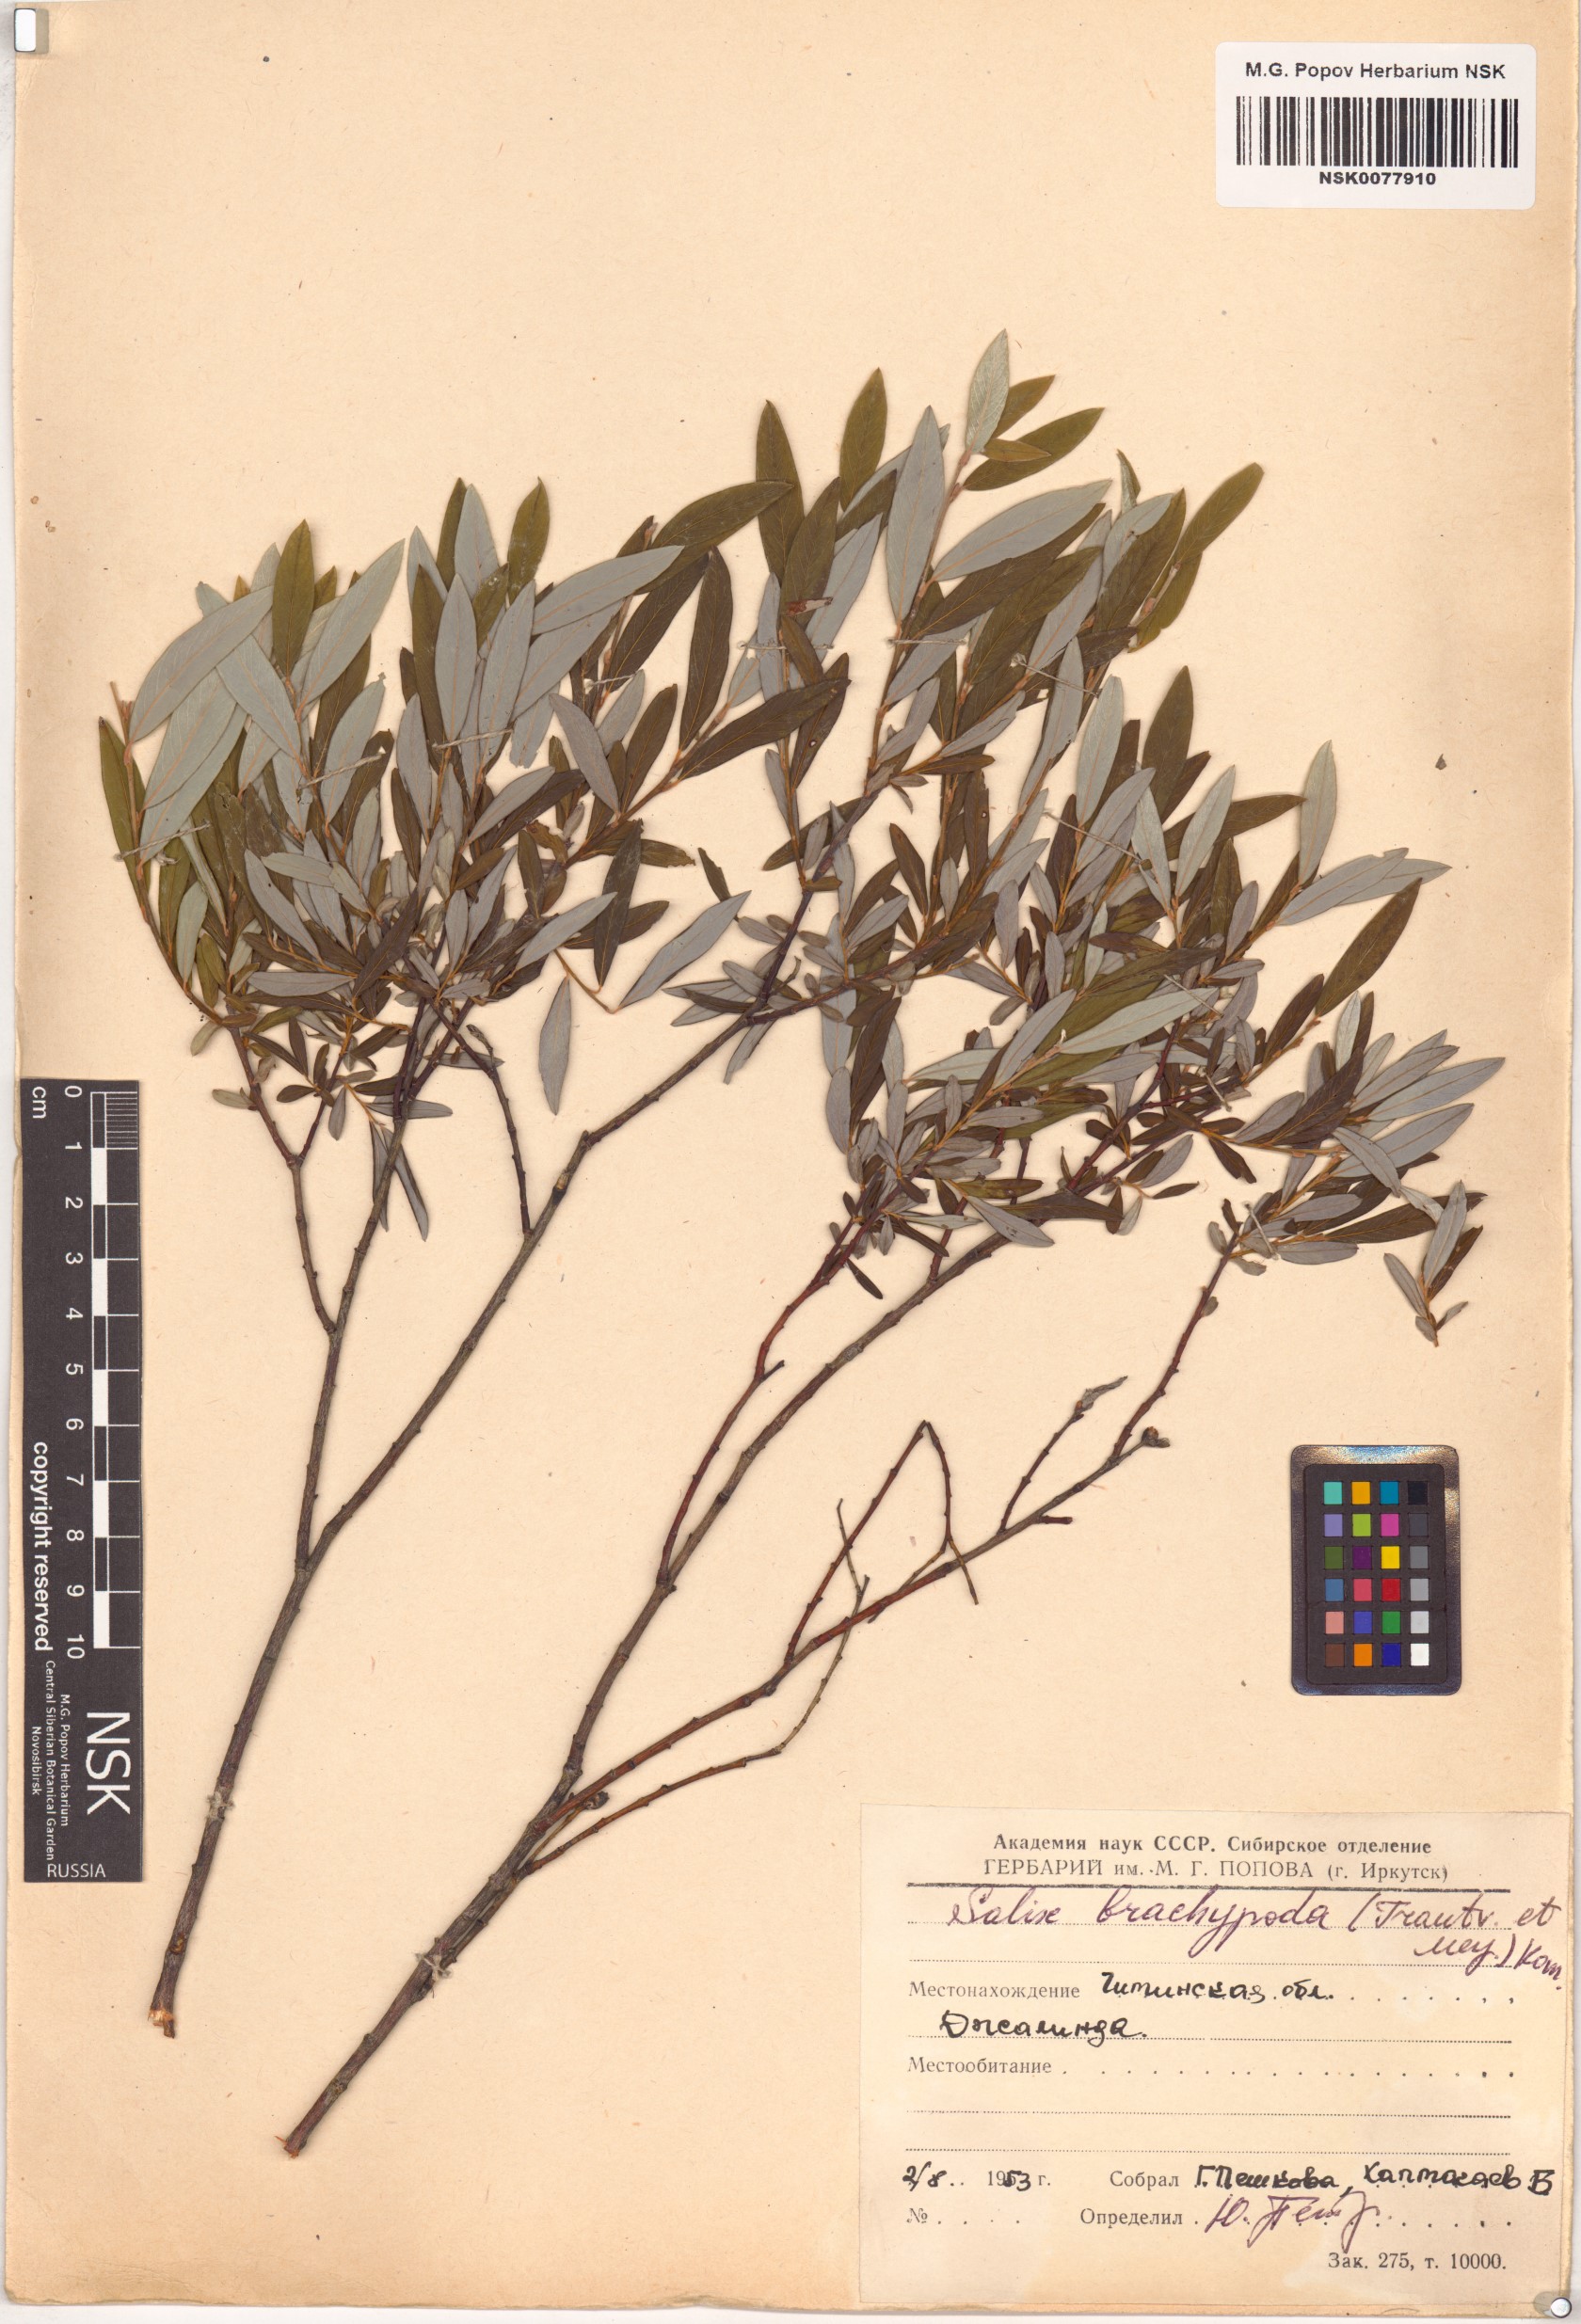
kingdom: Plantae
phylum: Tracheophyta
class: Magnoliopsida
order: Malpighiales
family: Salicaceae
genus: Salix
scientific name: Salix brachypoda
